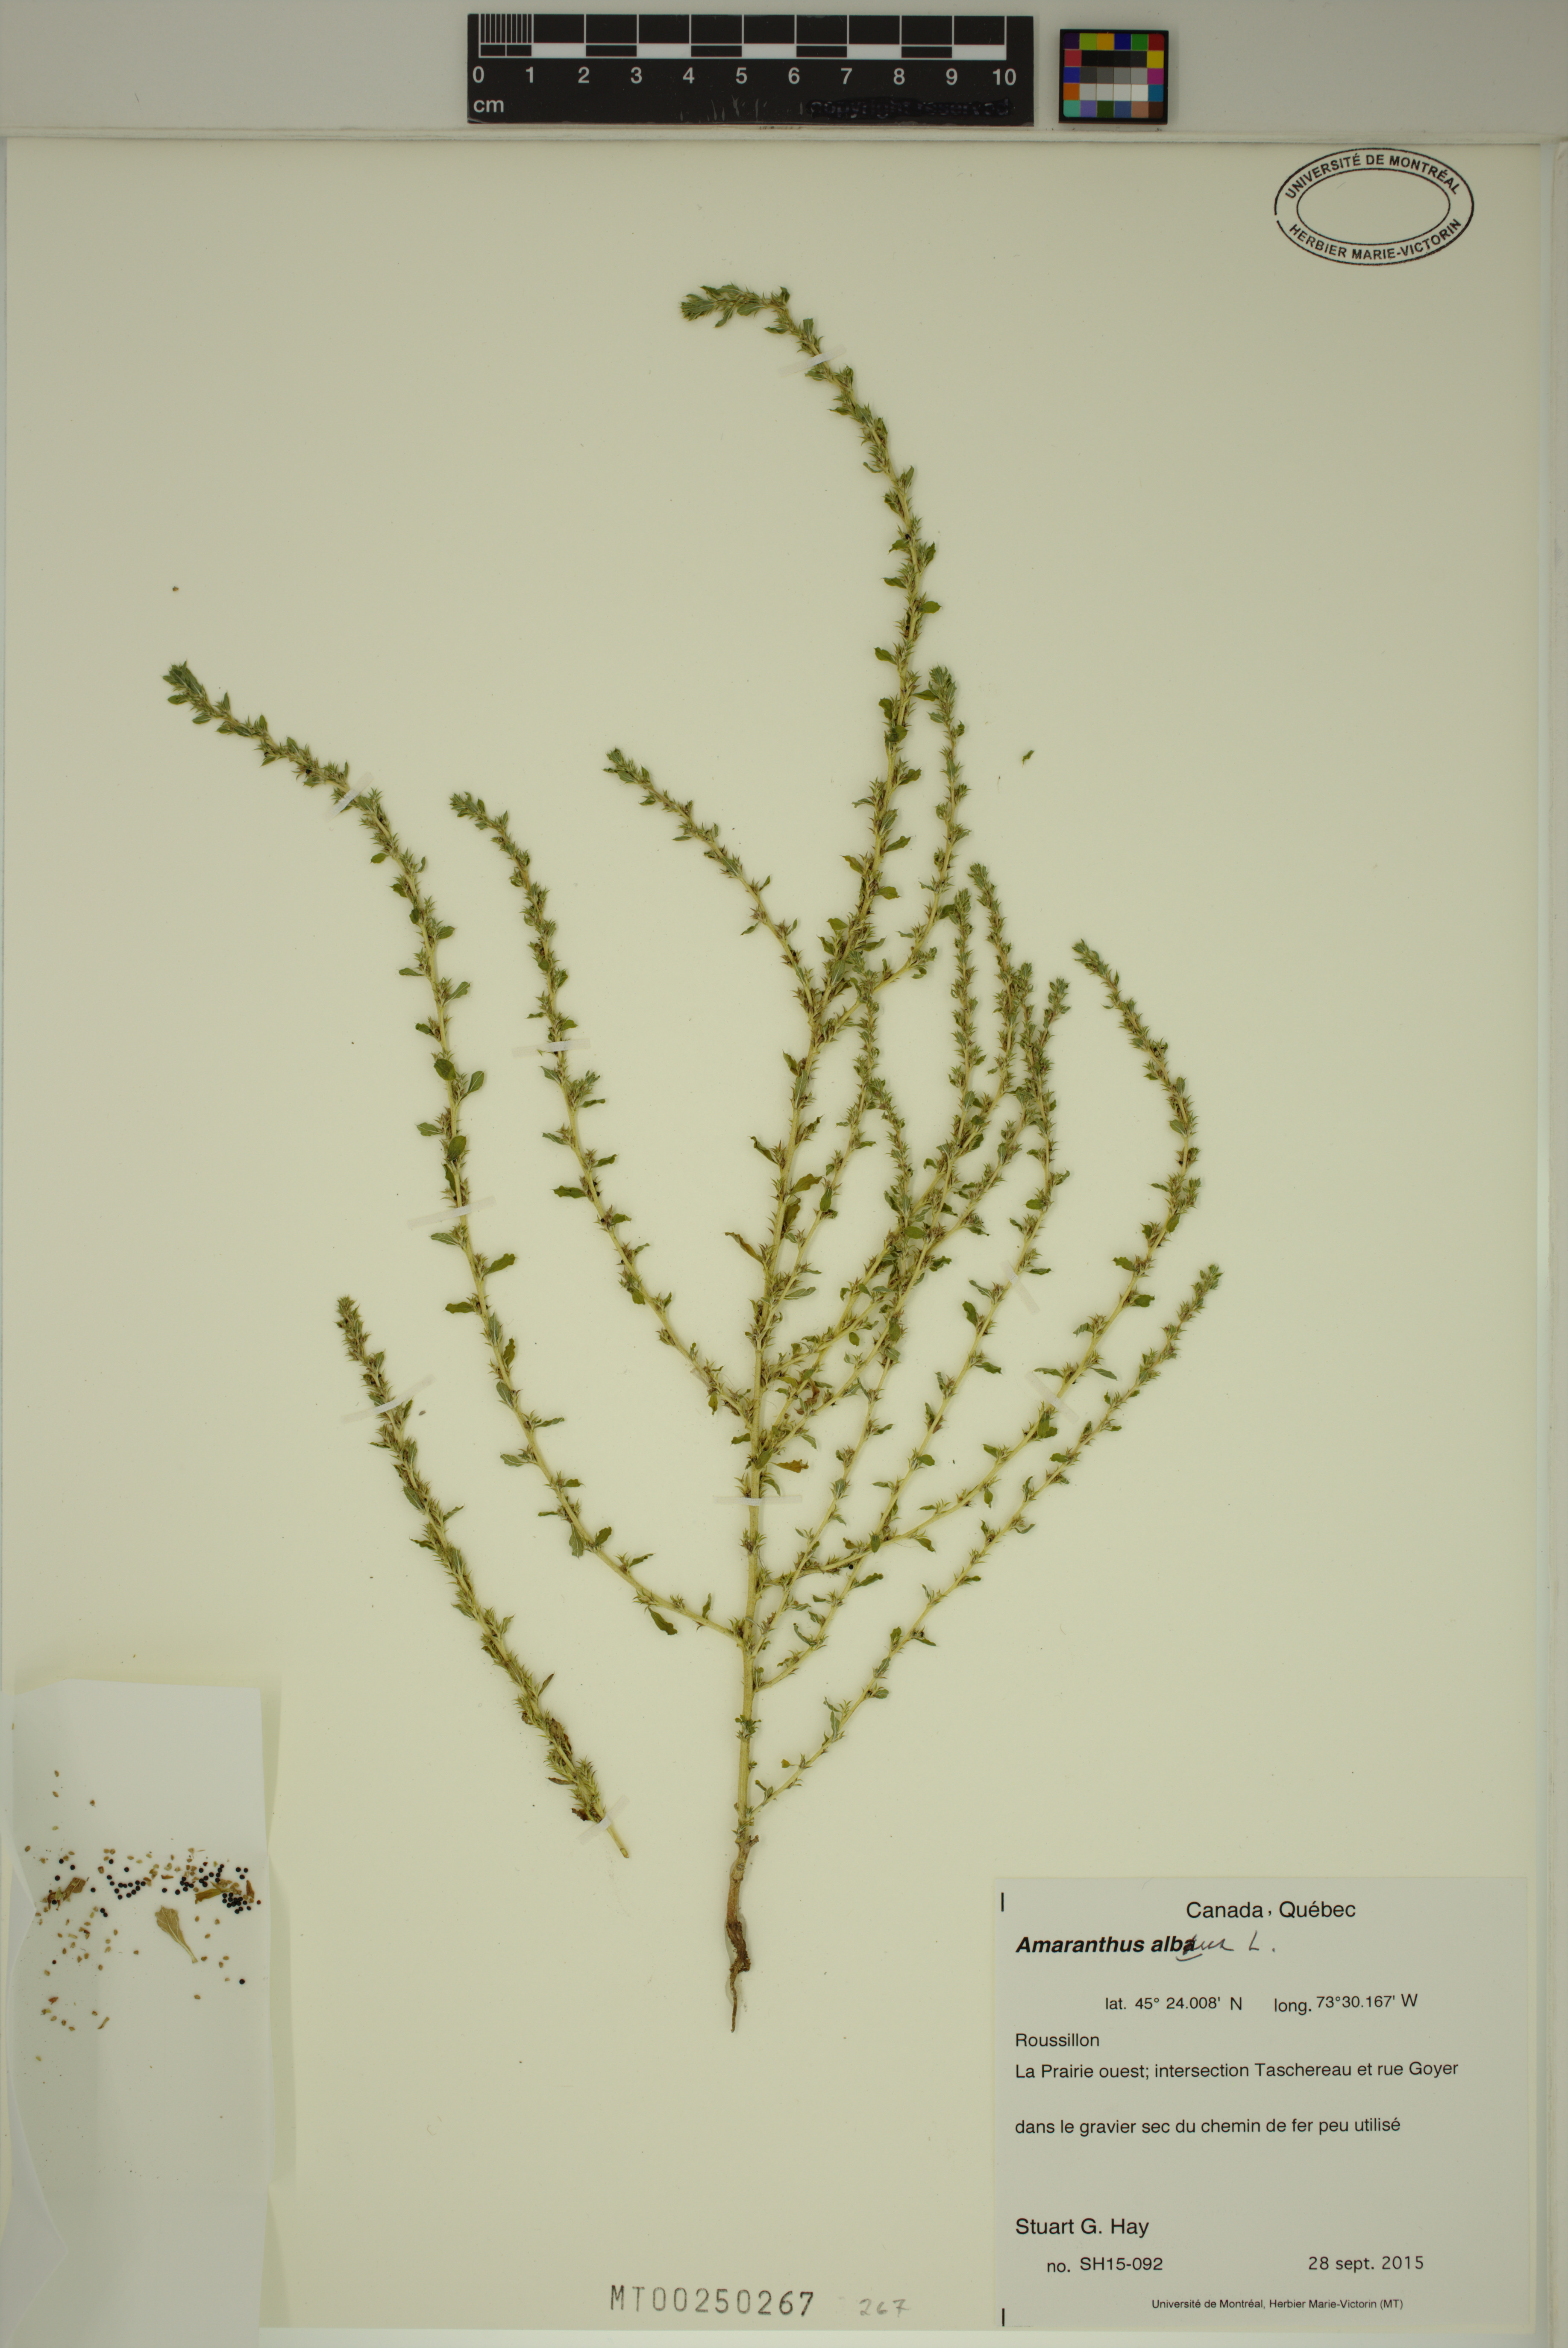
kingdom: Plantae
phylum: Tracheophyta
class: Magnoliopsida
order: Caryophyllales
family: Amaranthaceae
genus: Amaranthus
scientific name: Amaranthus albus
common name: White pigweed
